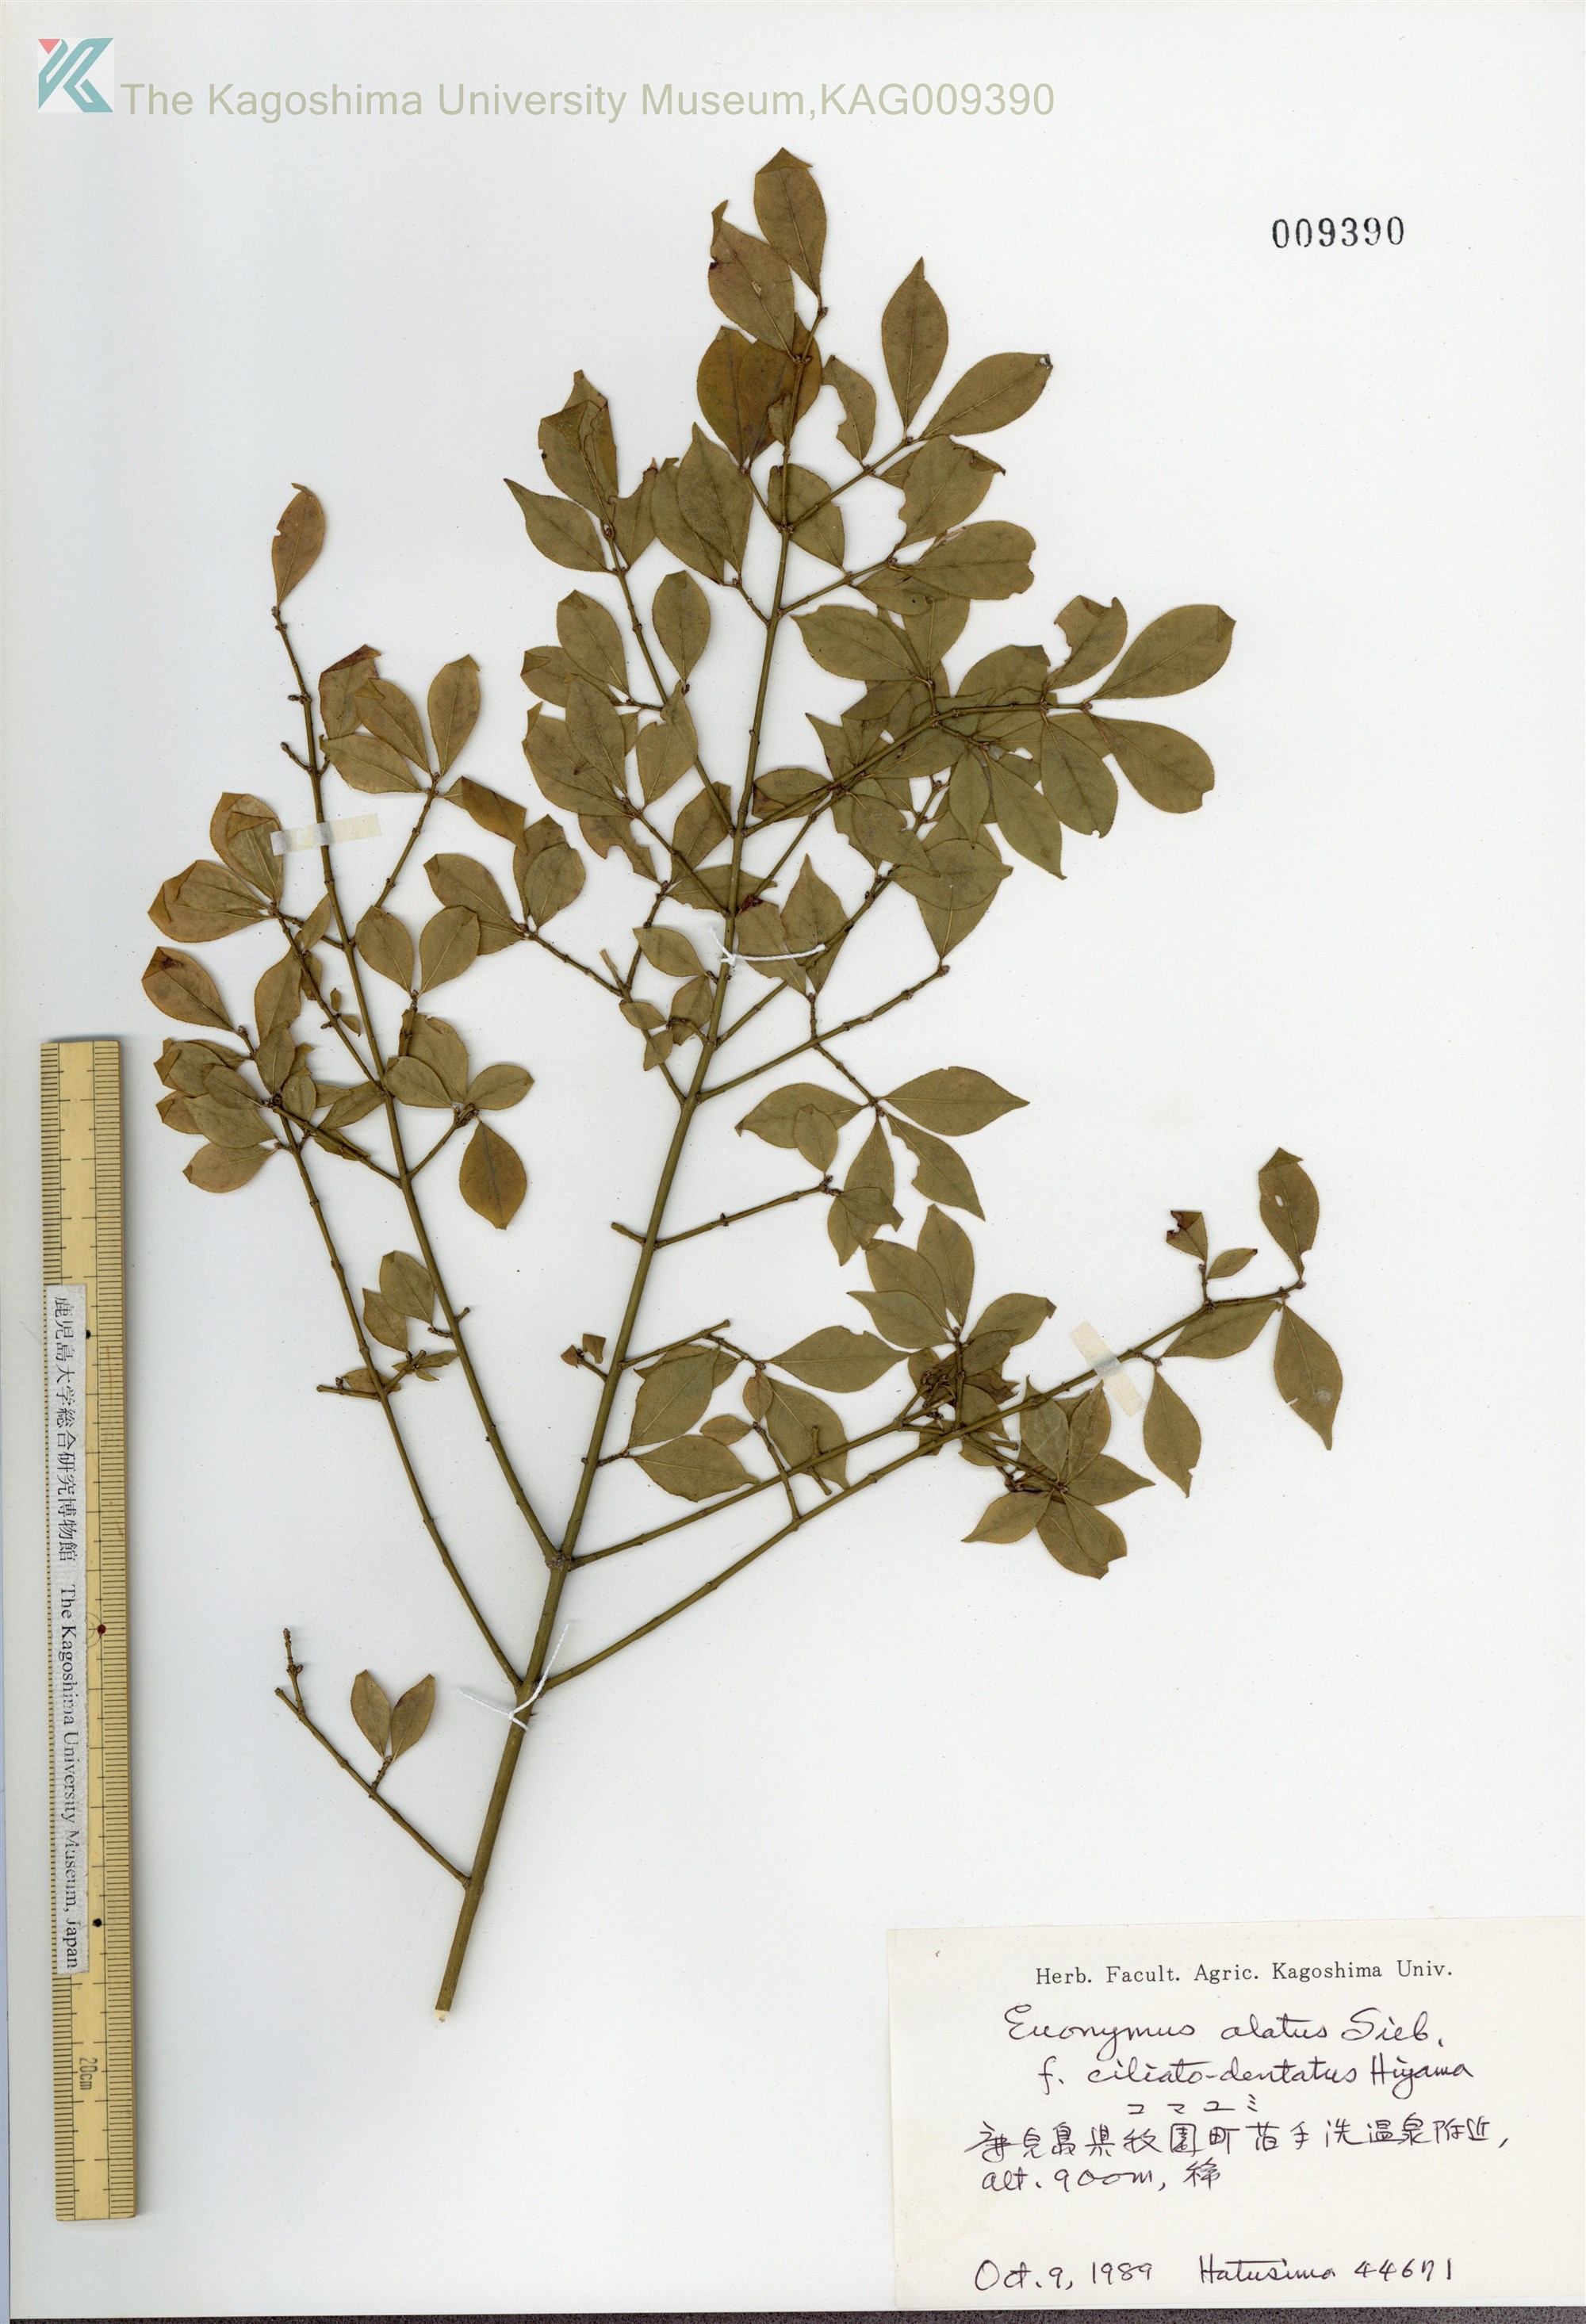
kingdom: Plantae
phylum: Tracheophyta
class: Magnoliopsida
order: Celastrales
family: Celastraceae
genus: Euonymus
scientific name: Euonymus alatus
